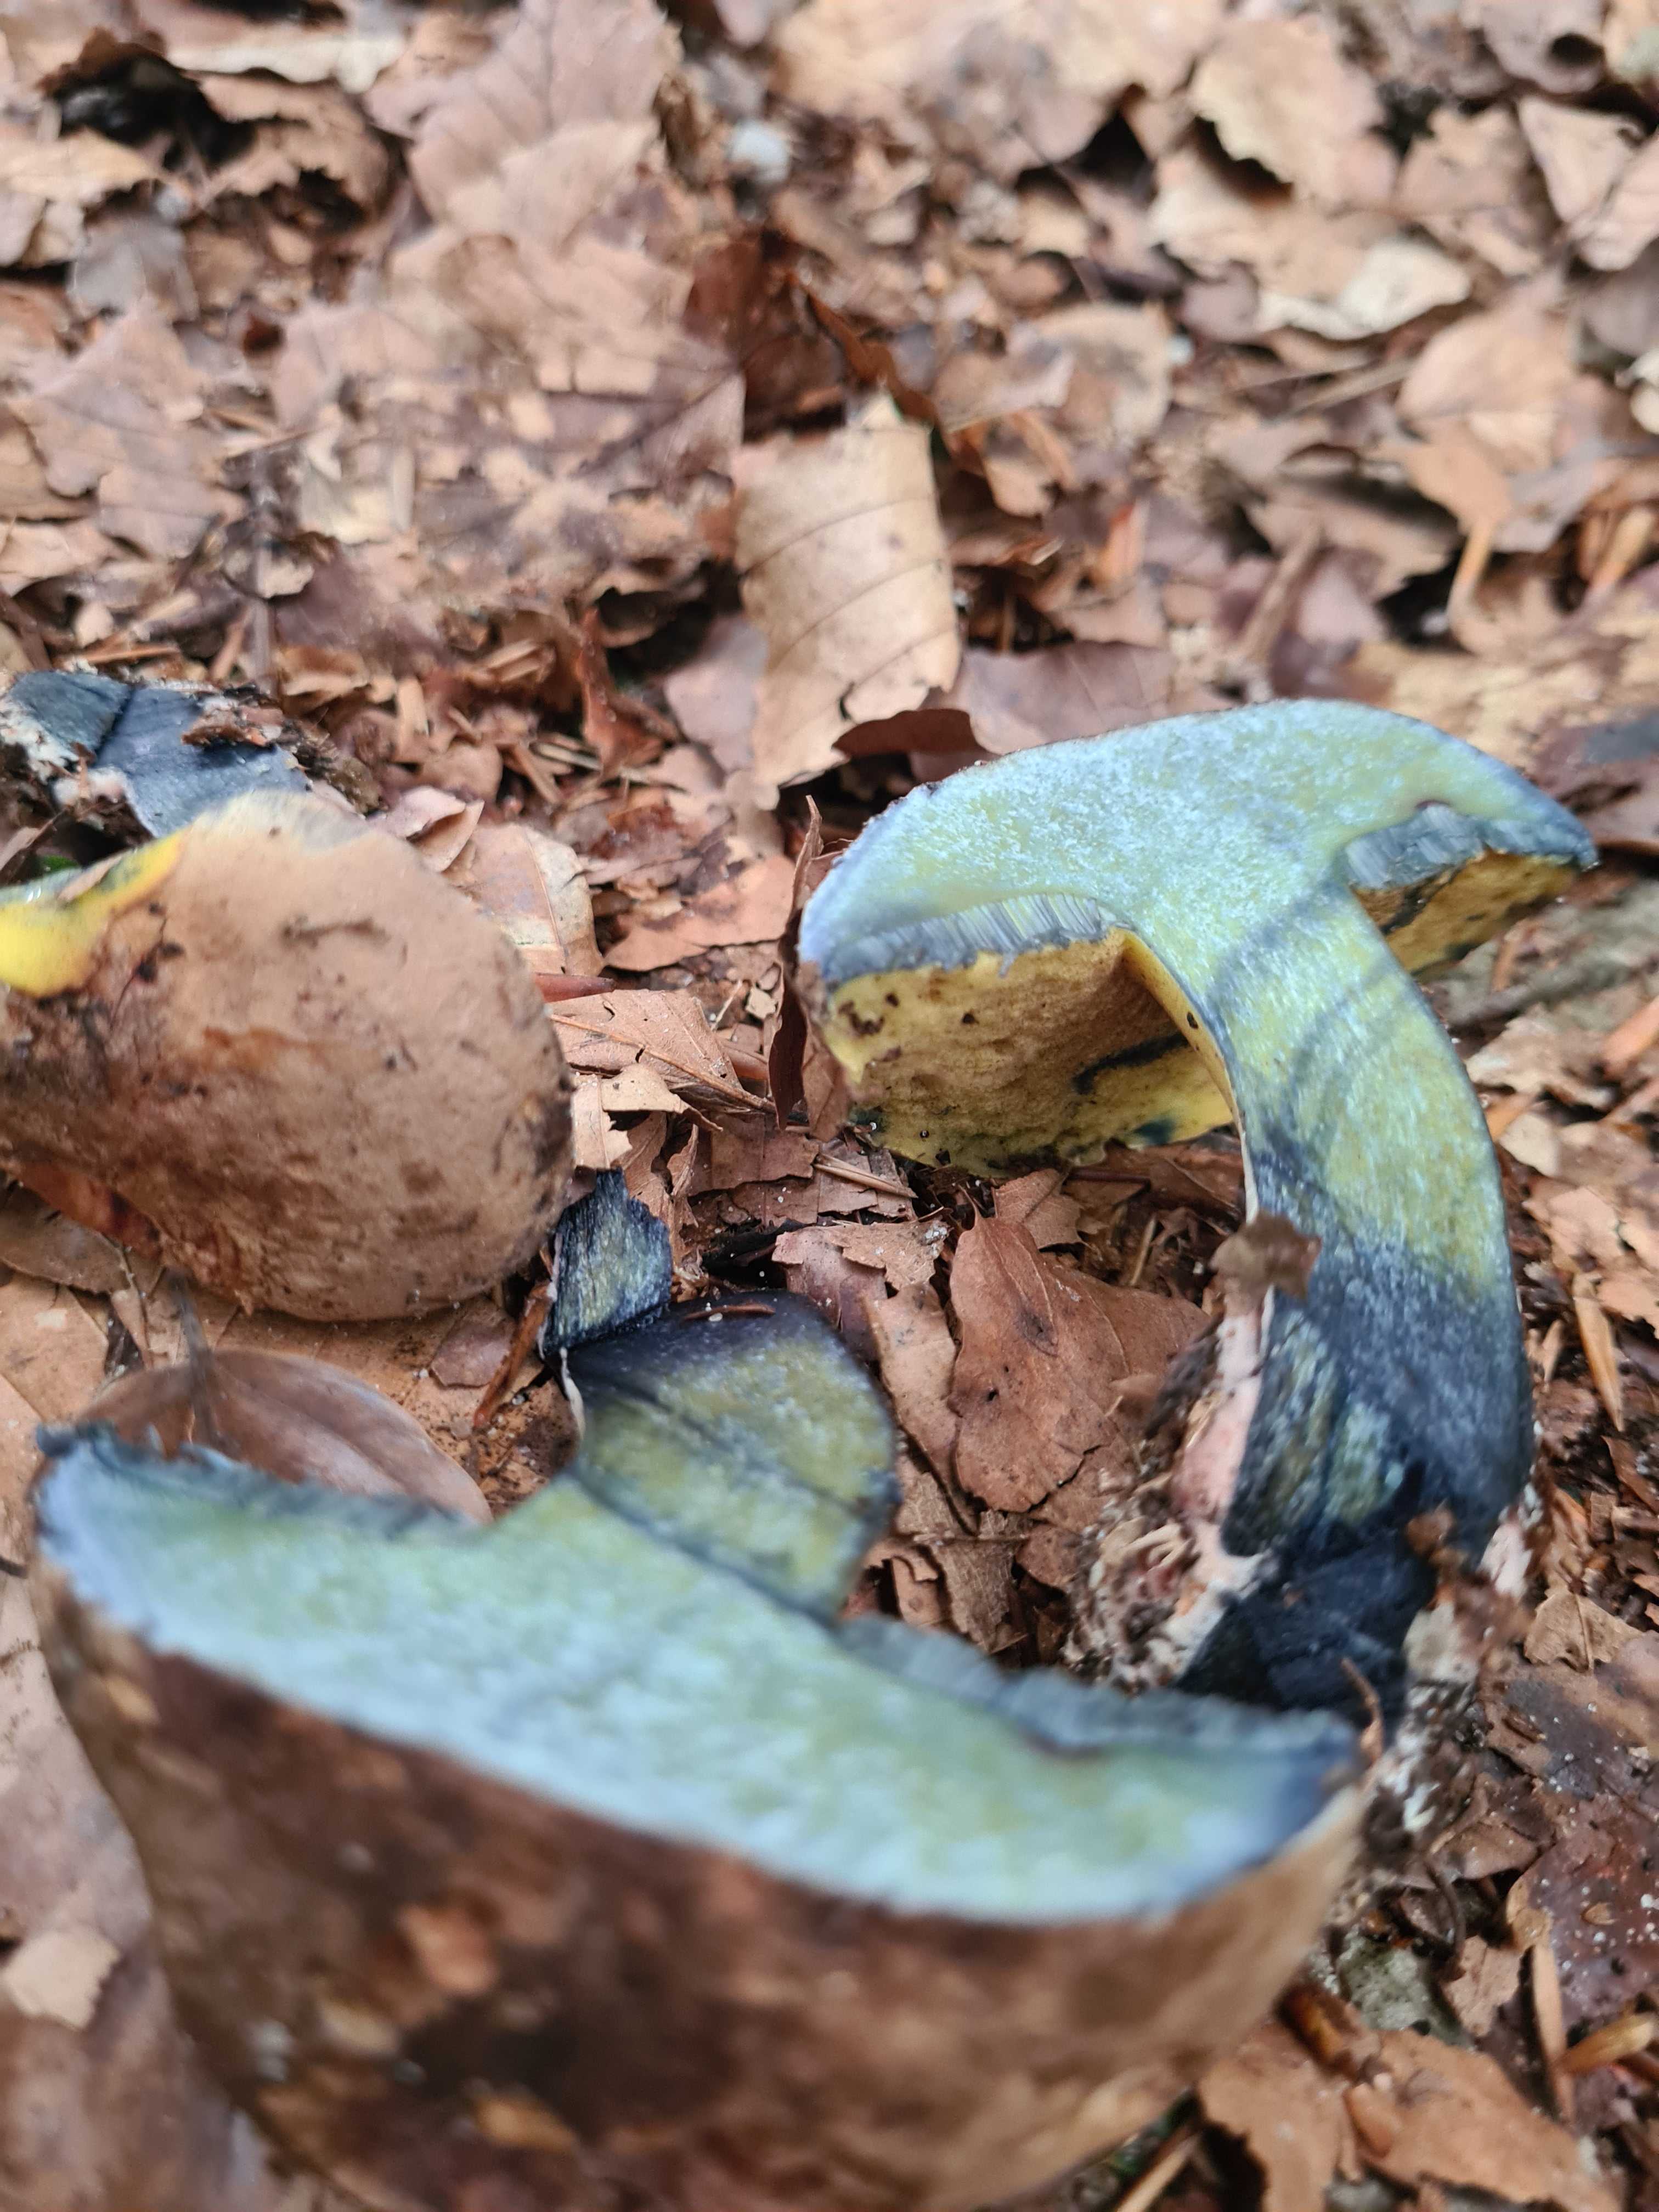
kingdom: Fungi
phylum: Basidiomycota
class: Agaricomycetes
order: Boletales
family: Boletaceae
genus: Cyanoboletus
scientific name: Cyanoboletus pulverulentus
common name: sortblånende rørhat
